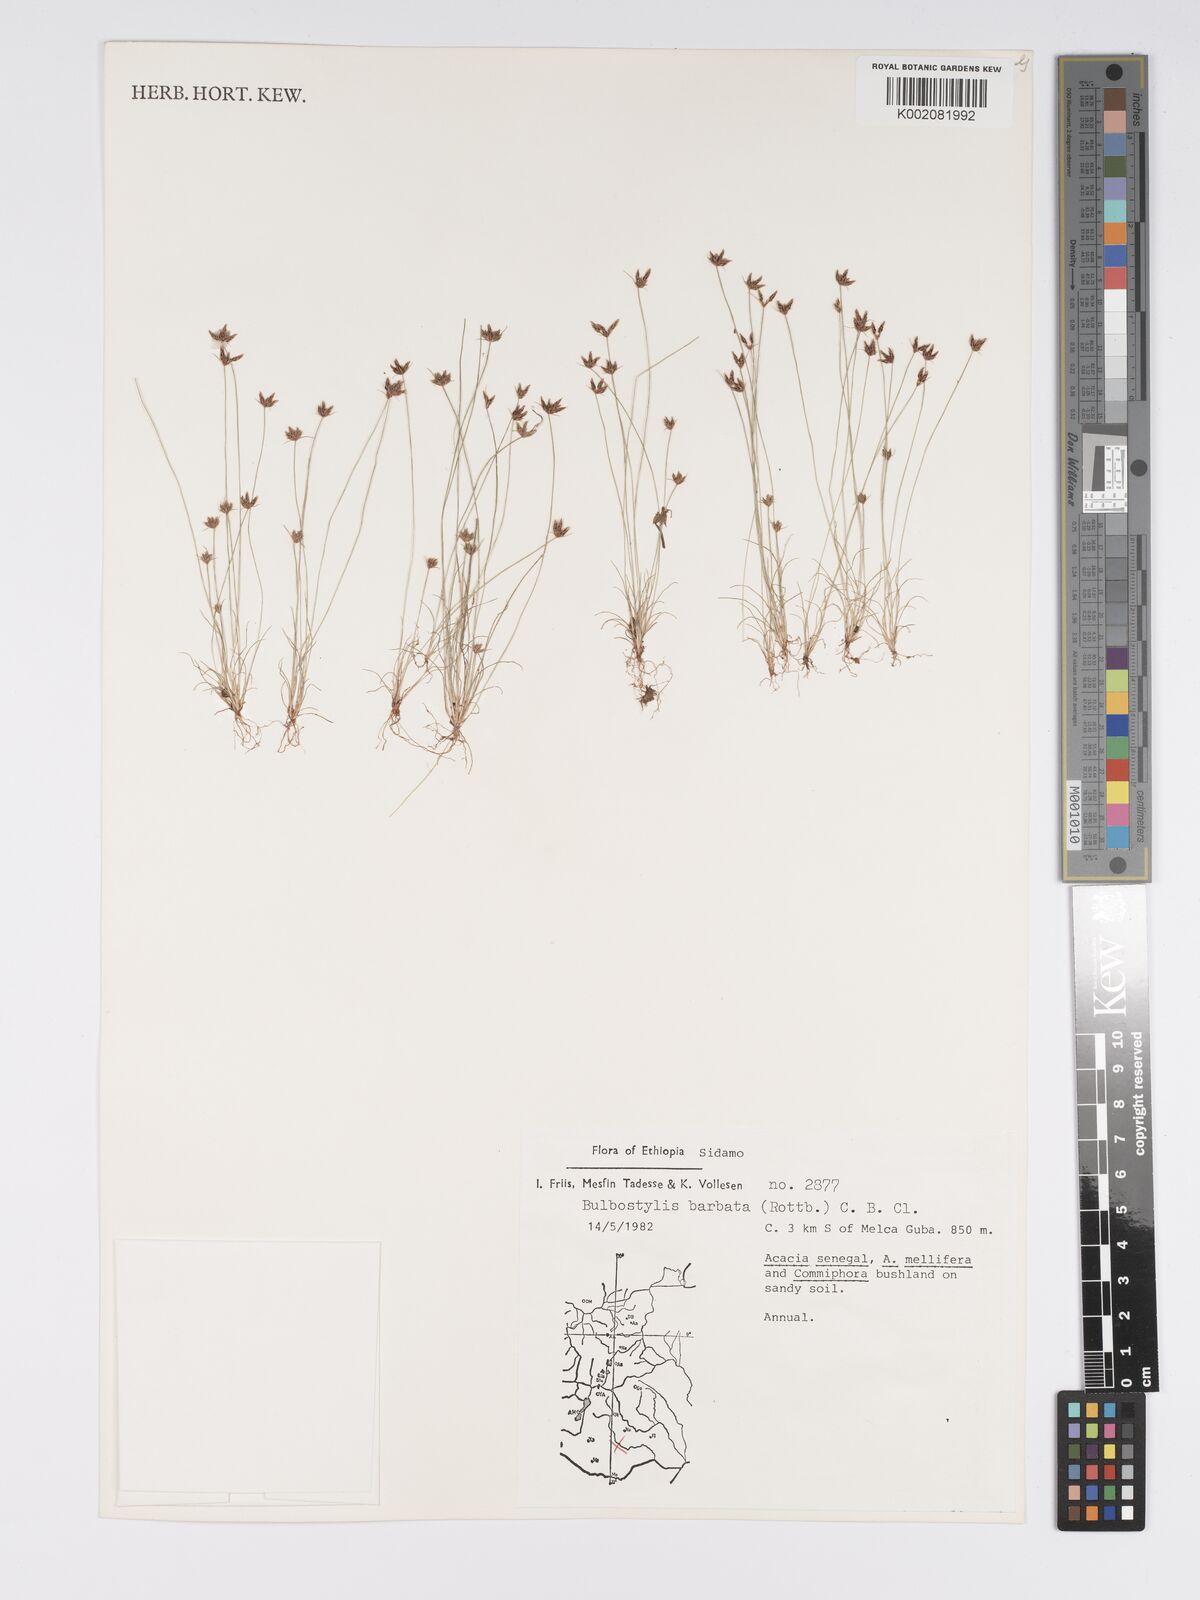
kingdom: Plantae
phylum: Tracheophyta
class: Liliopsida
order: Poales
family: Cyperaceae
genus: Bulbostylis
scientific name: Bulbostylis barbata
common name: Watergrass
